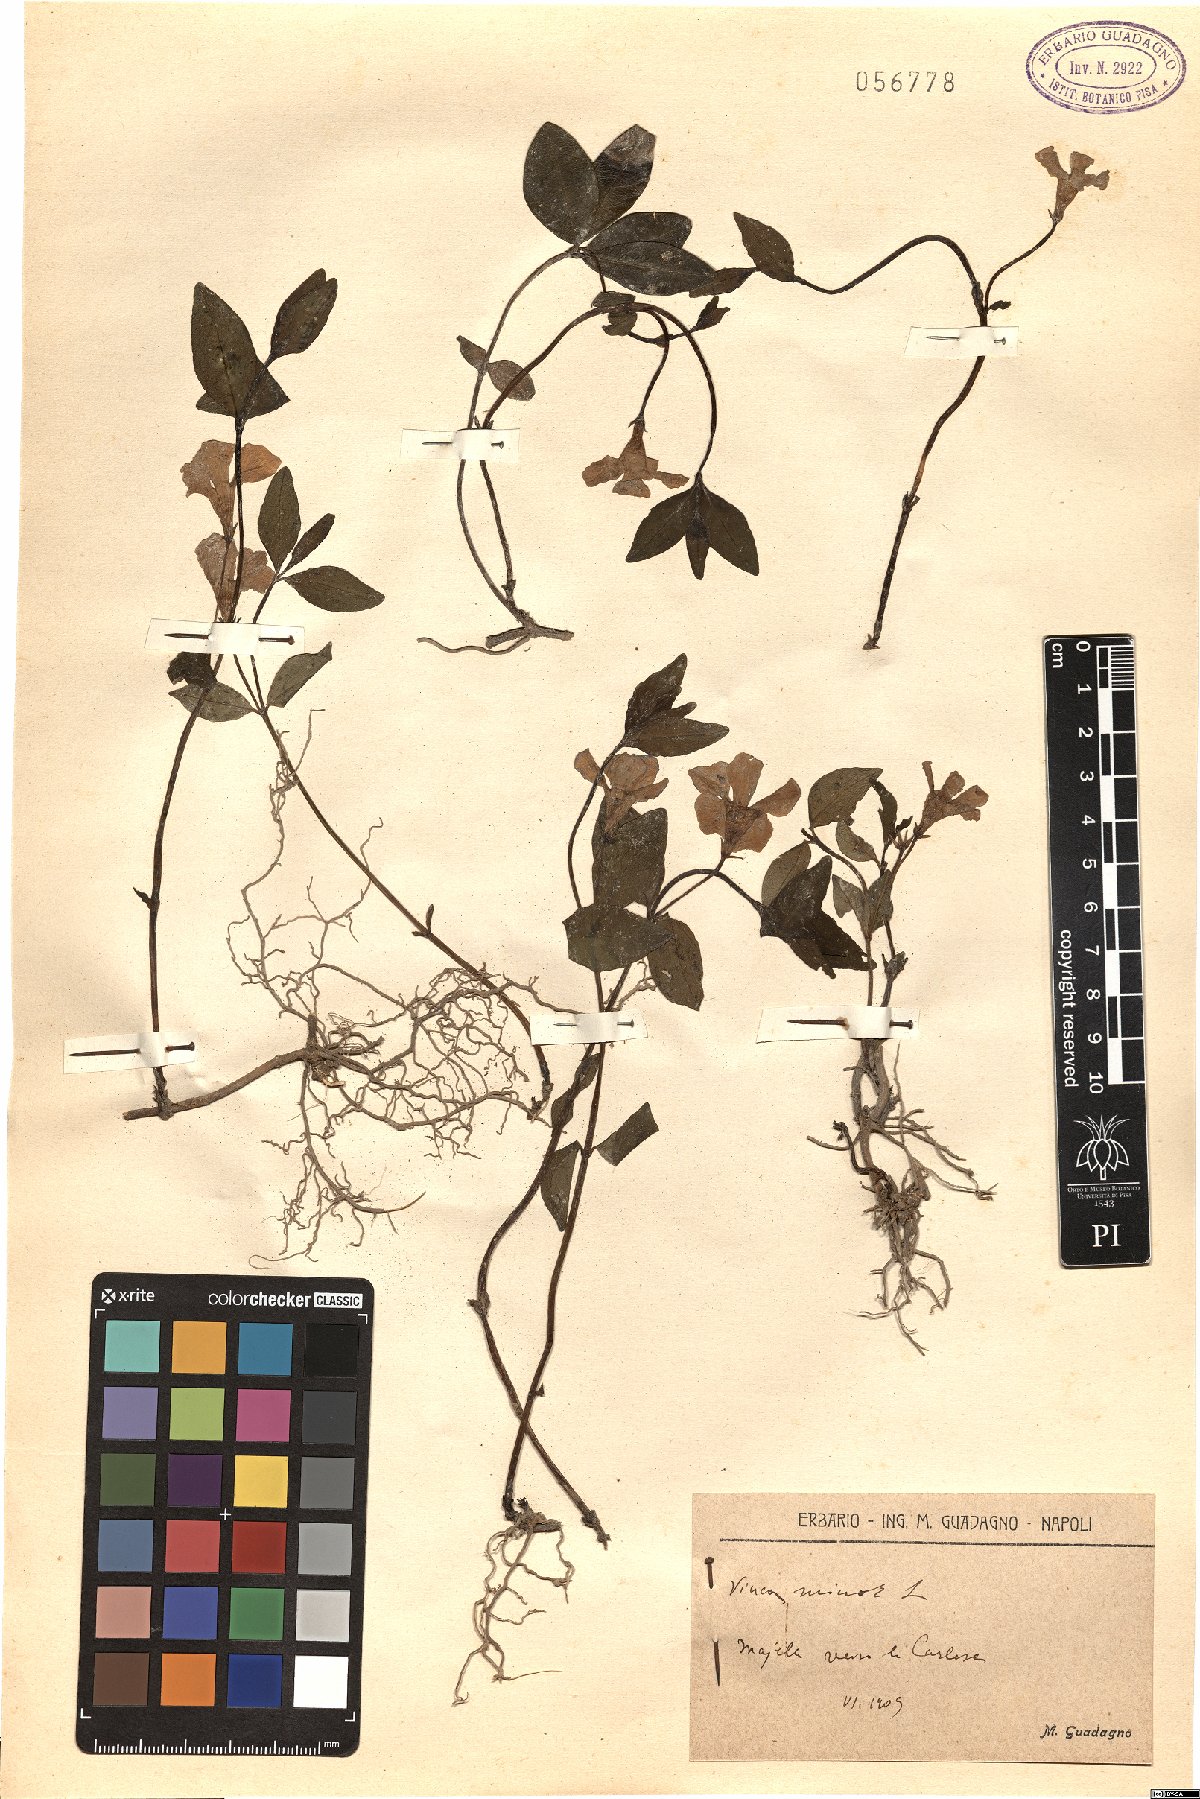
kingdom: Plantae
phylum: Tracheophyta
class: Magnoliopsida
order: Gentianales
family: Apocynaceae
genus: Vinca
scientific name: Vinca minor
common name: Lesser periwinkle
